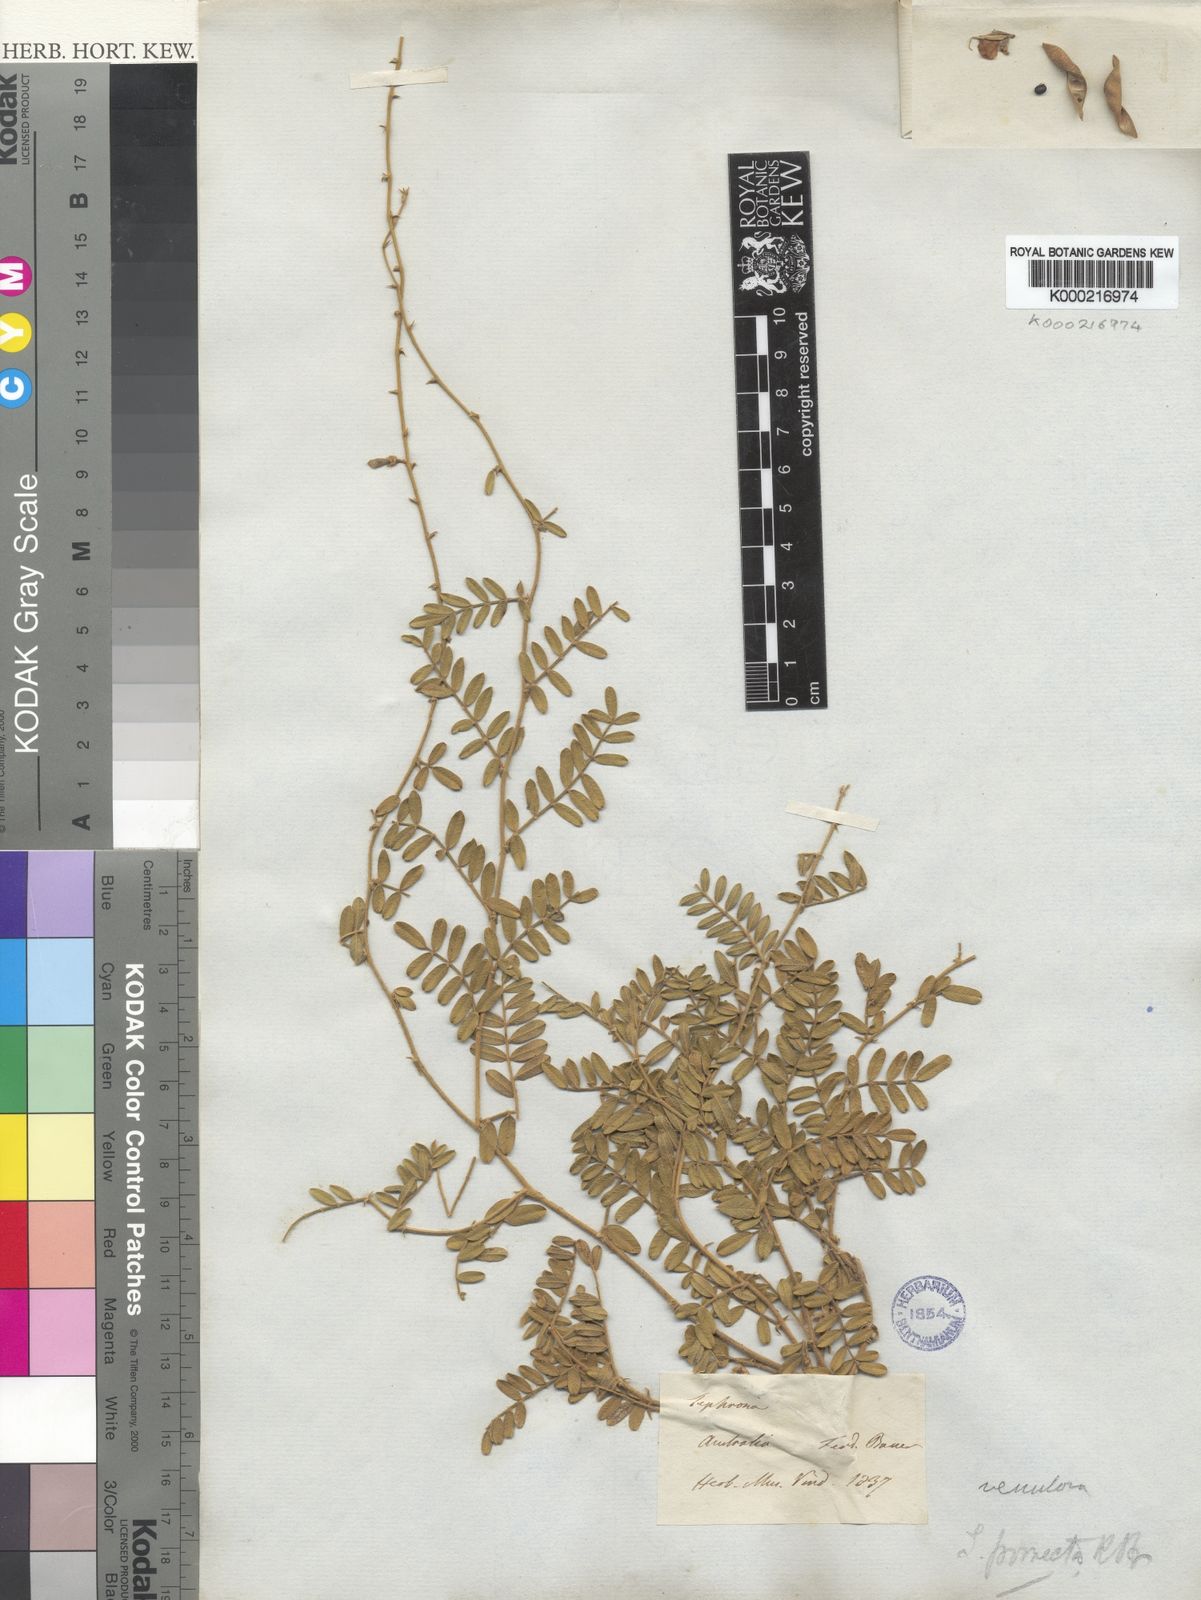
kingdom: Plantae
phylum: Tracheophyta
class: Magnoliopsida
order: Fabales
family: Fabaceae
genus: Tephrosia
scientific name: Tephrosia porrecta
